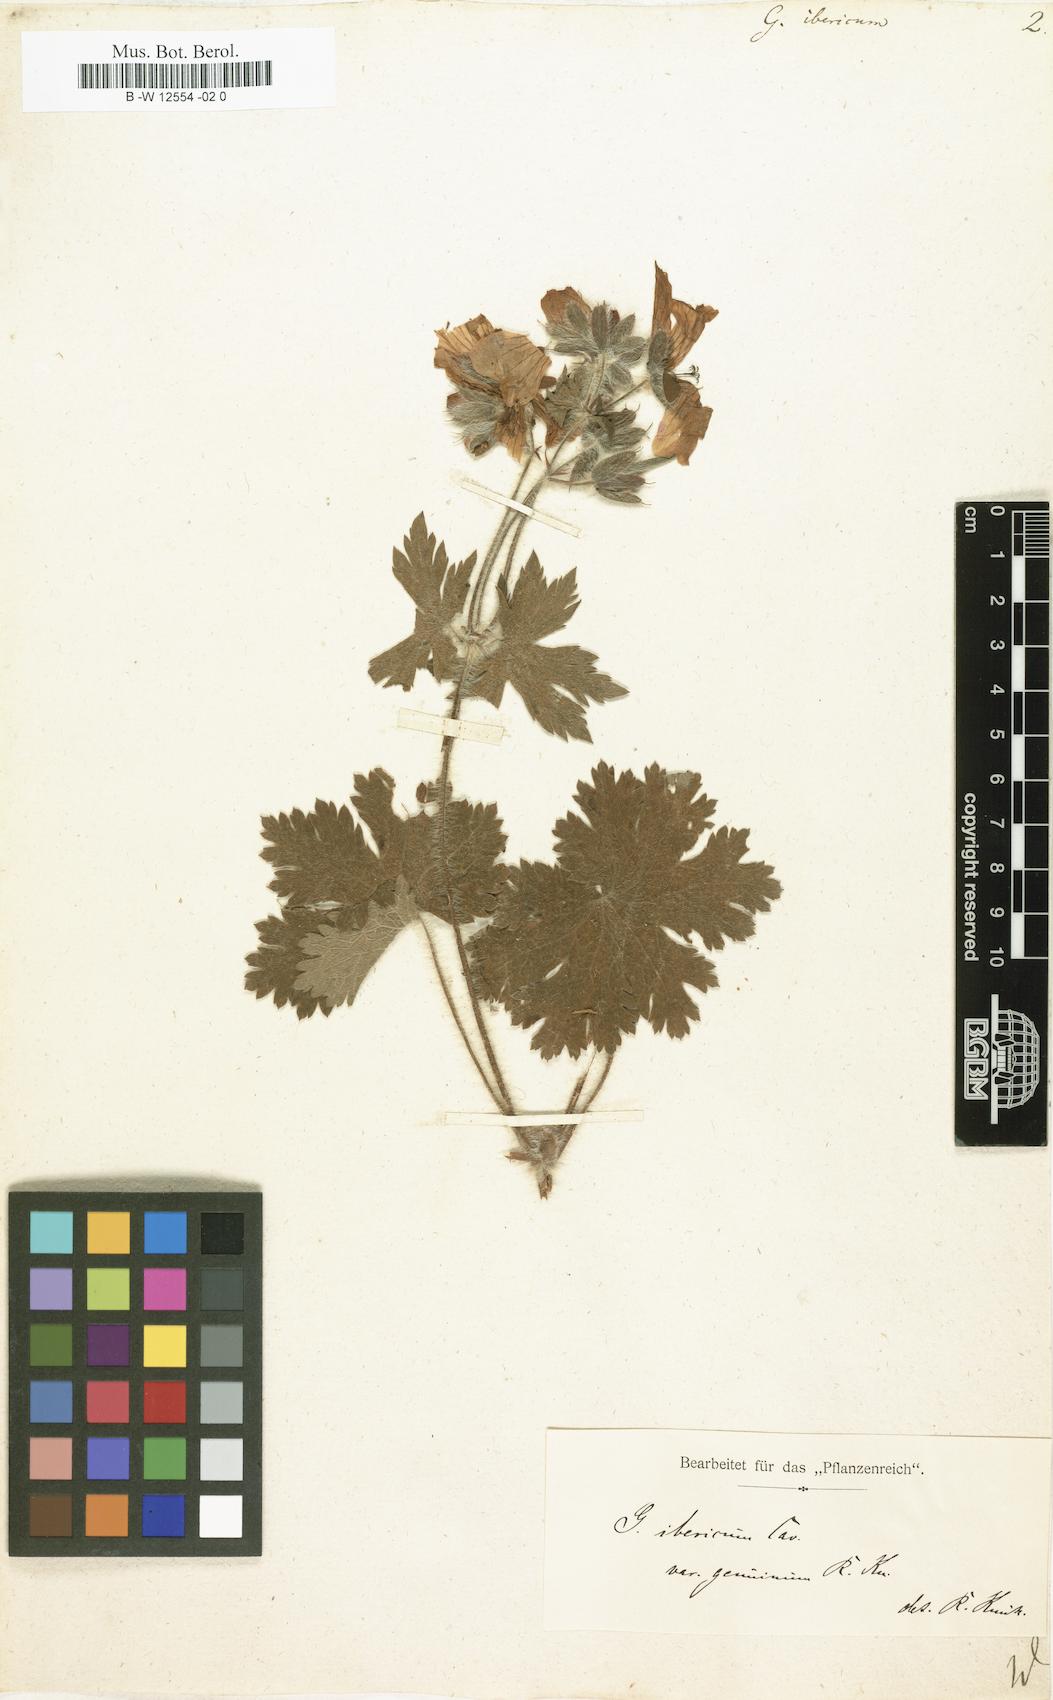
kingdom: Plantae
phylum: Tracheophyta
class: Magnoliopsida
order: Geraniales
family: Geraniaceae
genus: Geranium
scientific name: Geranium ibericum
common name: Caucasian crane's-bill
